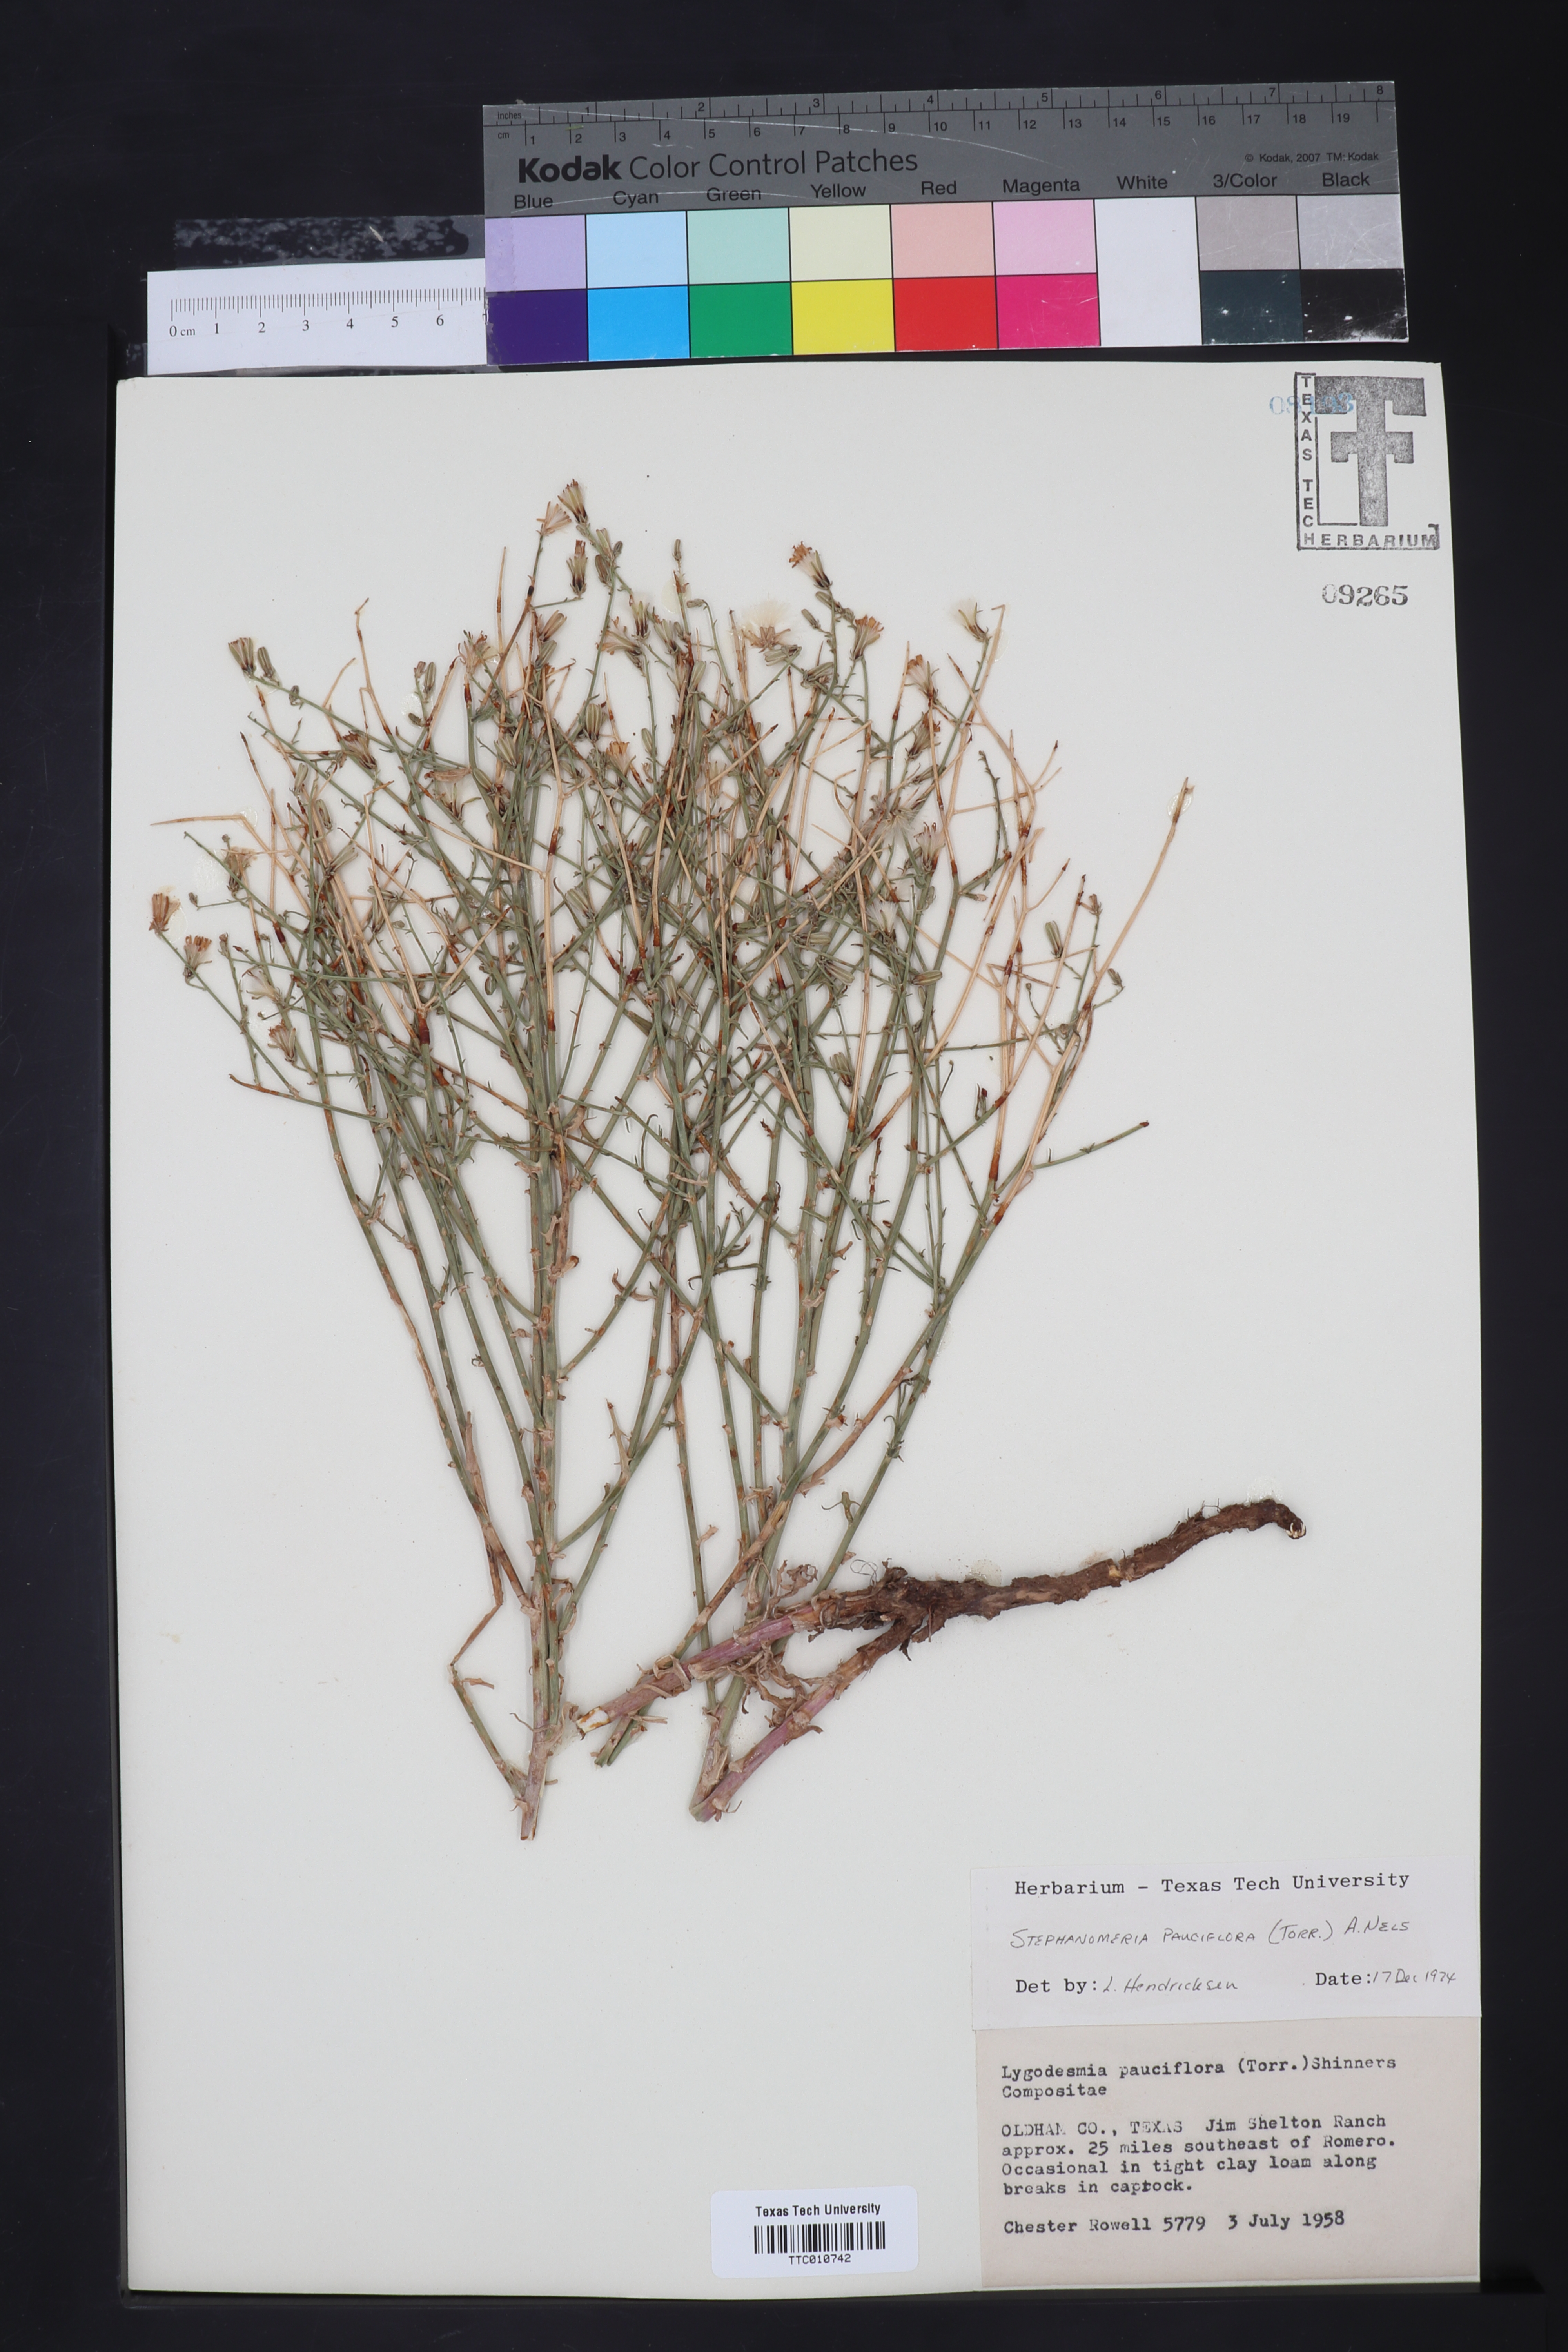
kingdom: Plantae
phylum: Tracheophyta
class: Magnoliopsida
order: Asterales
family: Asteraceae
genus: Stephanomeria
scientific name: Stephanomeria pauciflora
